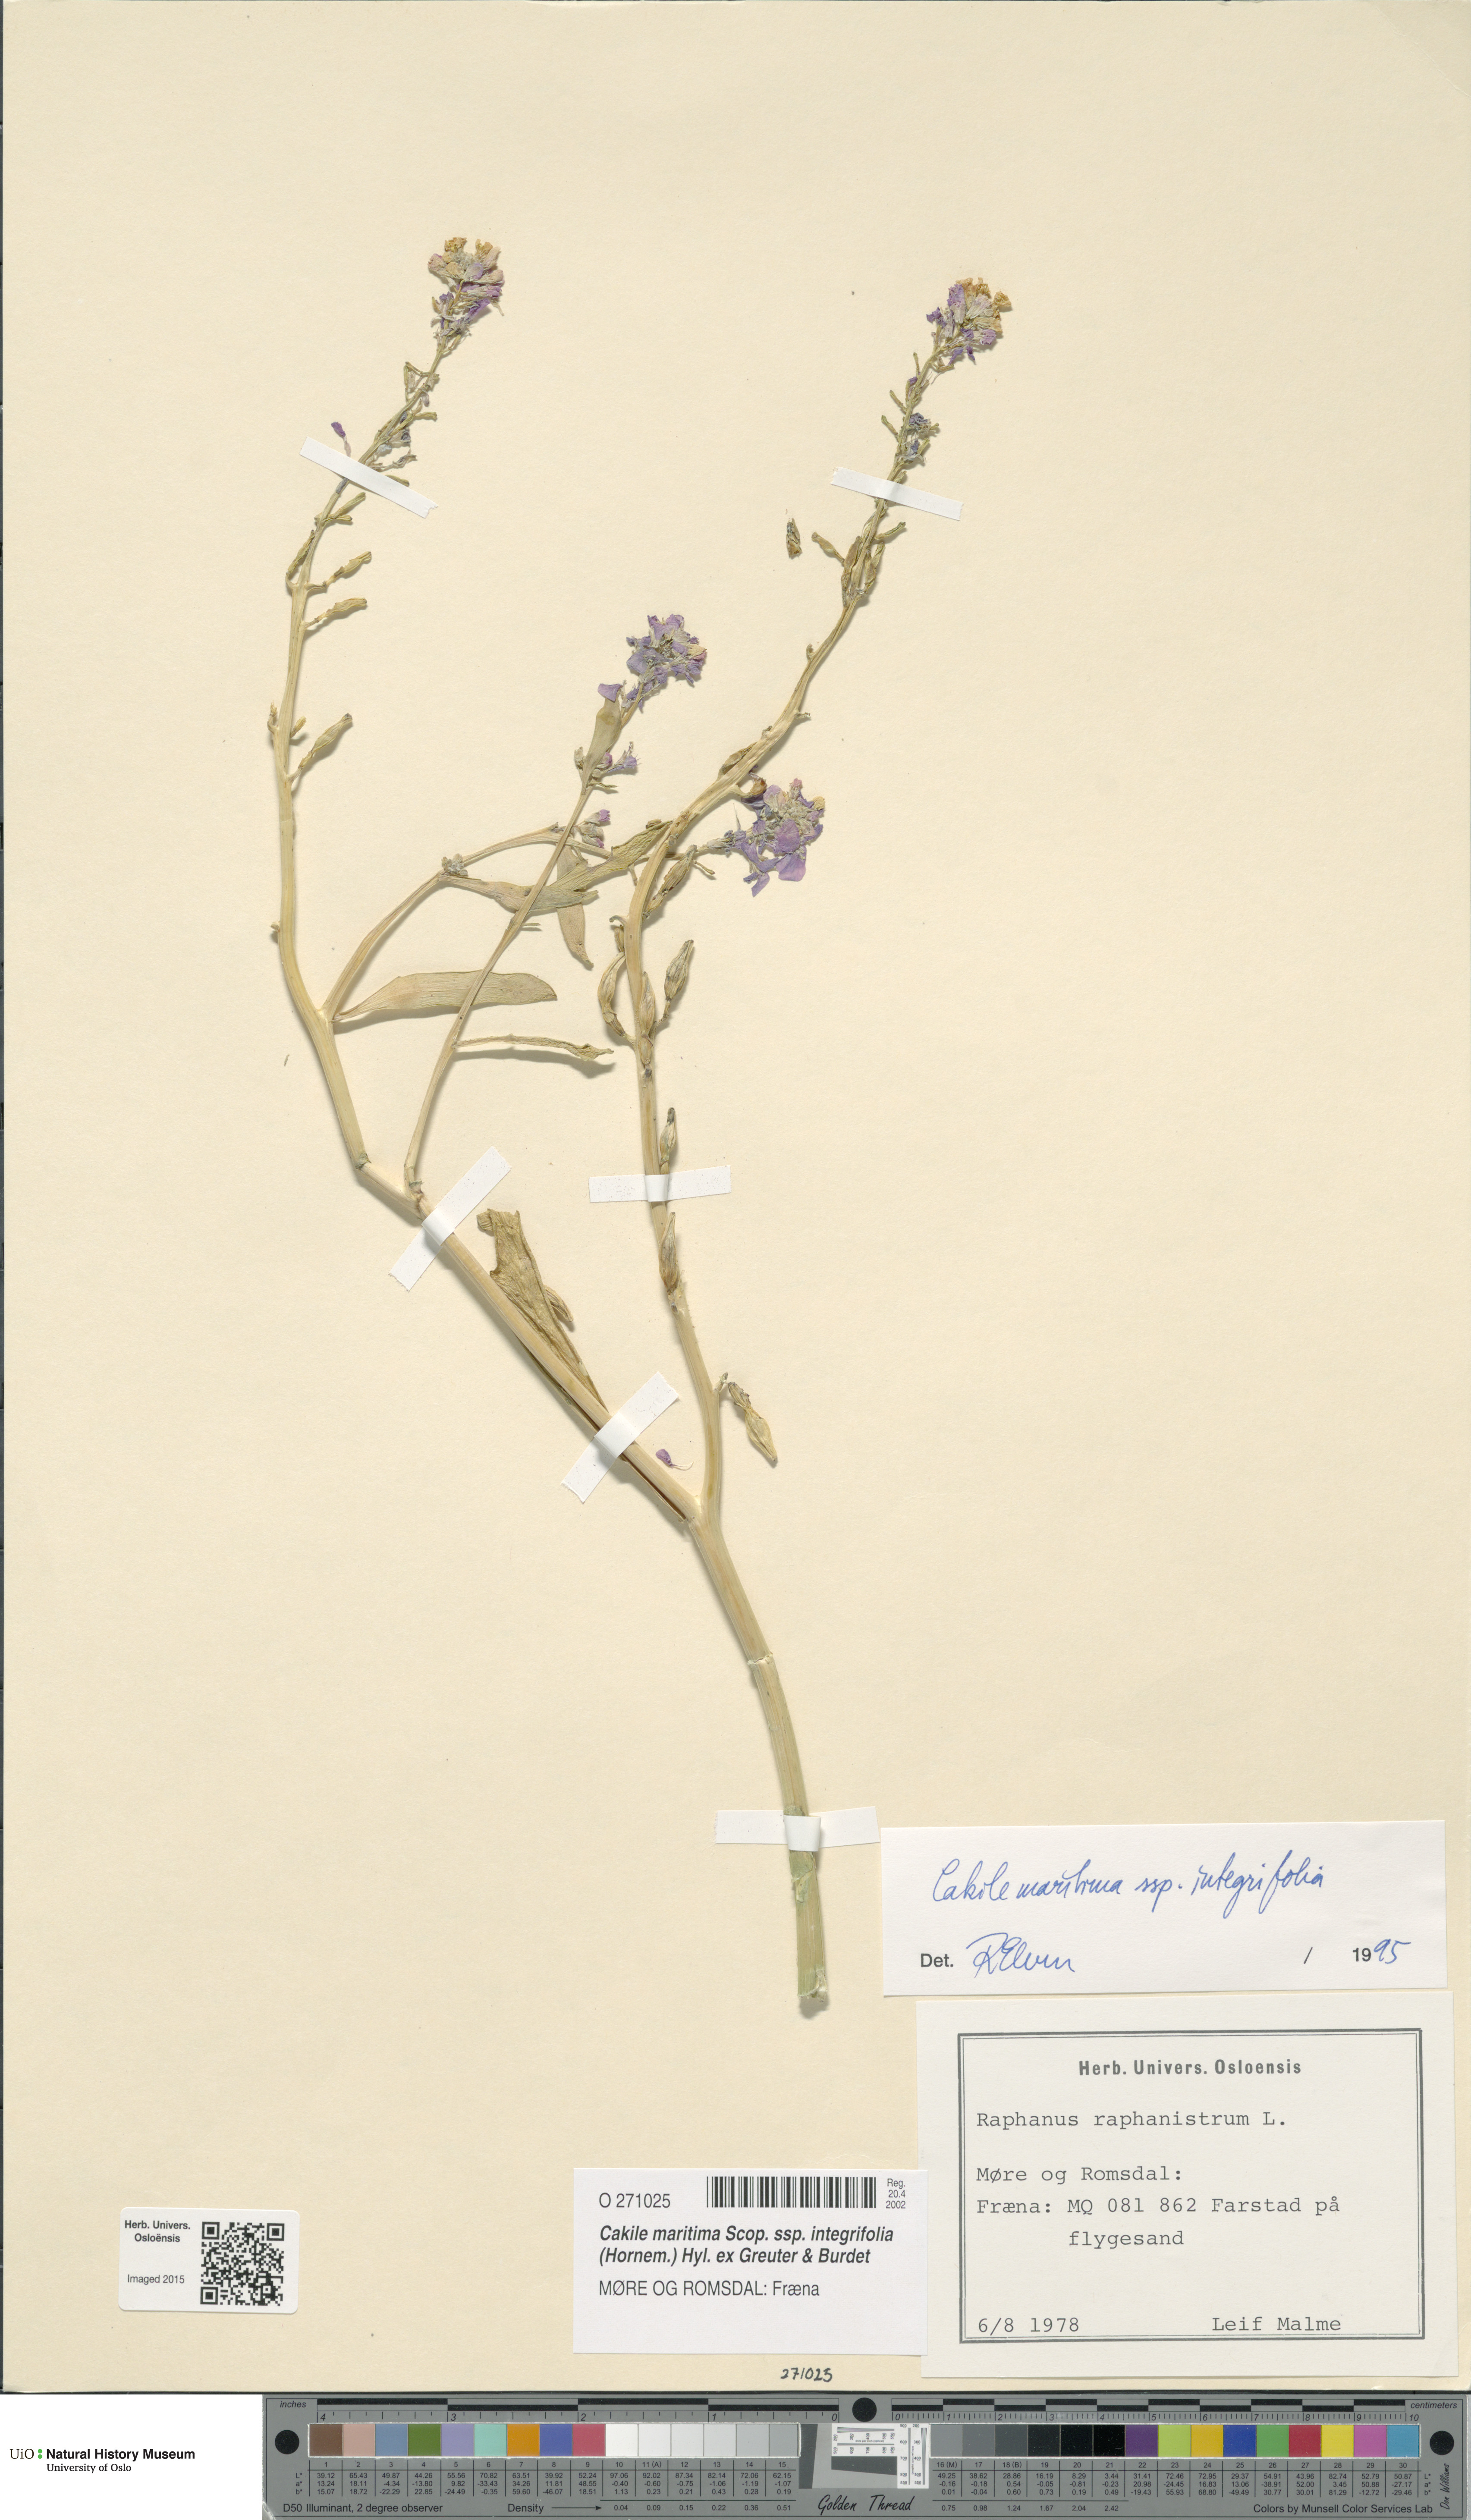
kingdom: Plantae
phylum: Tracheophyta
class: Magnoliopsida
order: Brassicales
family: Brassicaceae
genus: Cakile
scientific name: Cakile maritima
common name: Sea rocket
